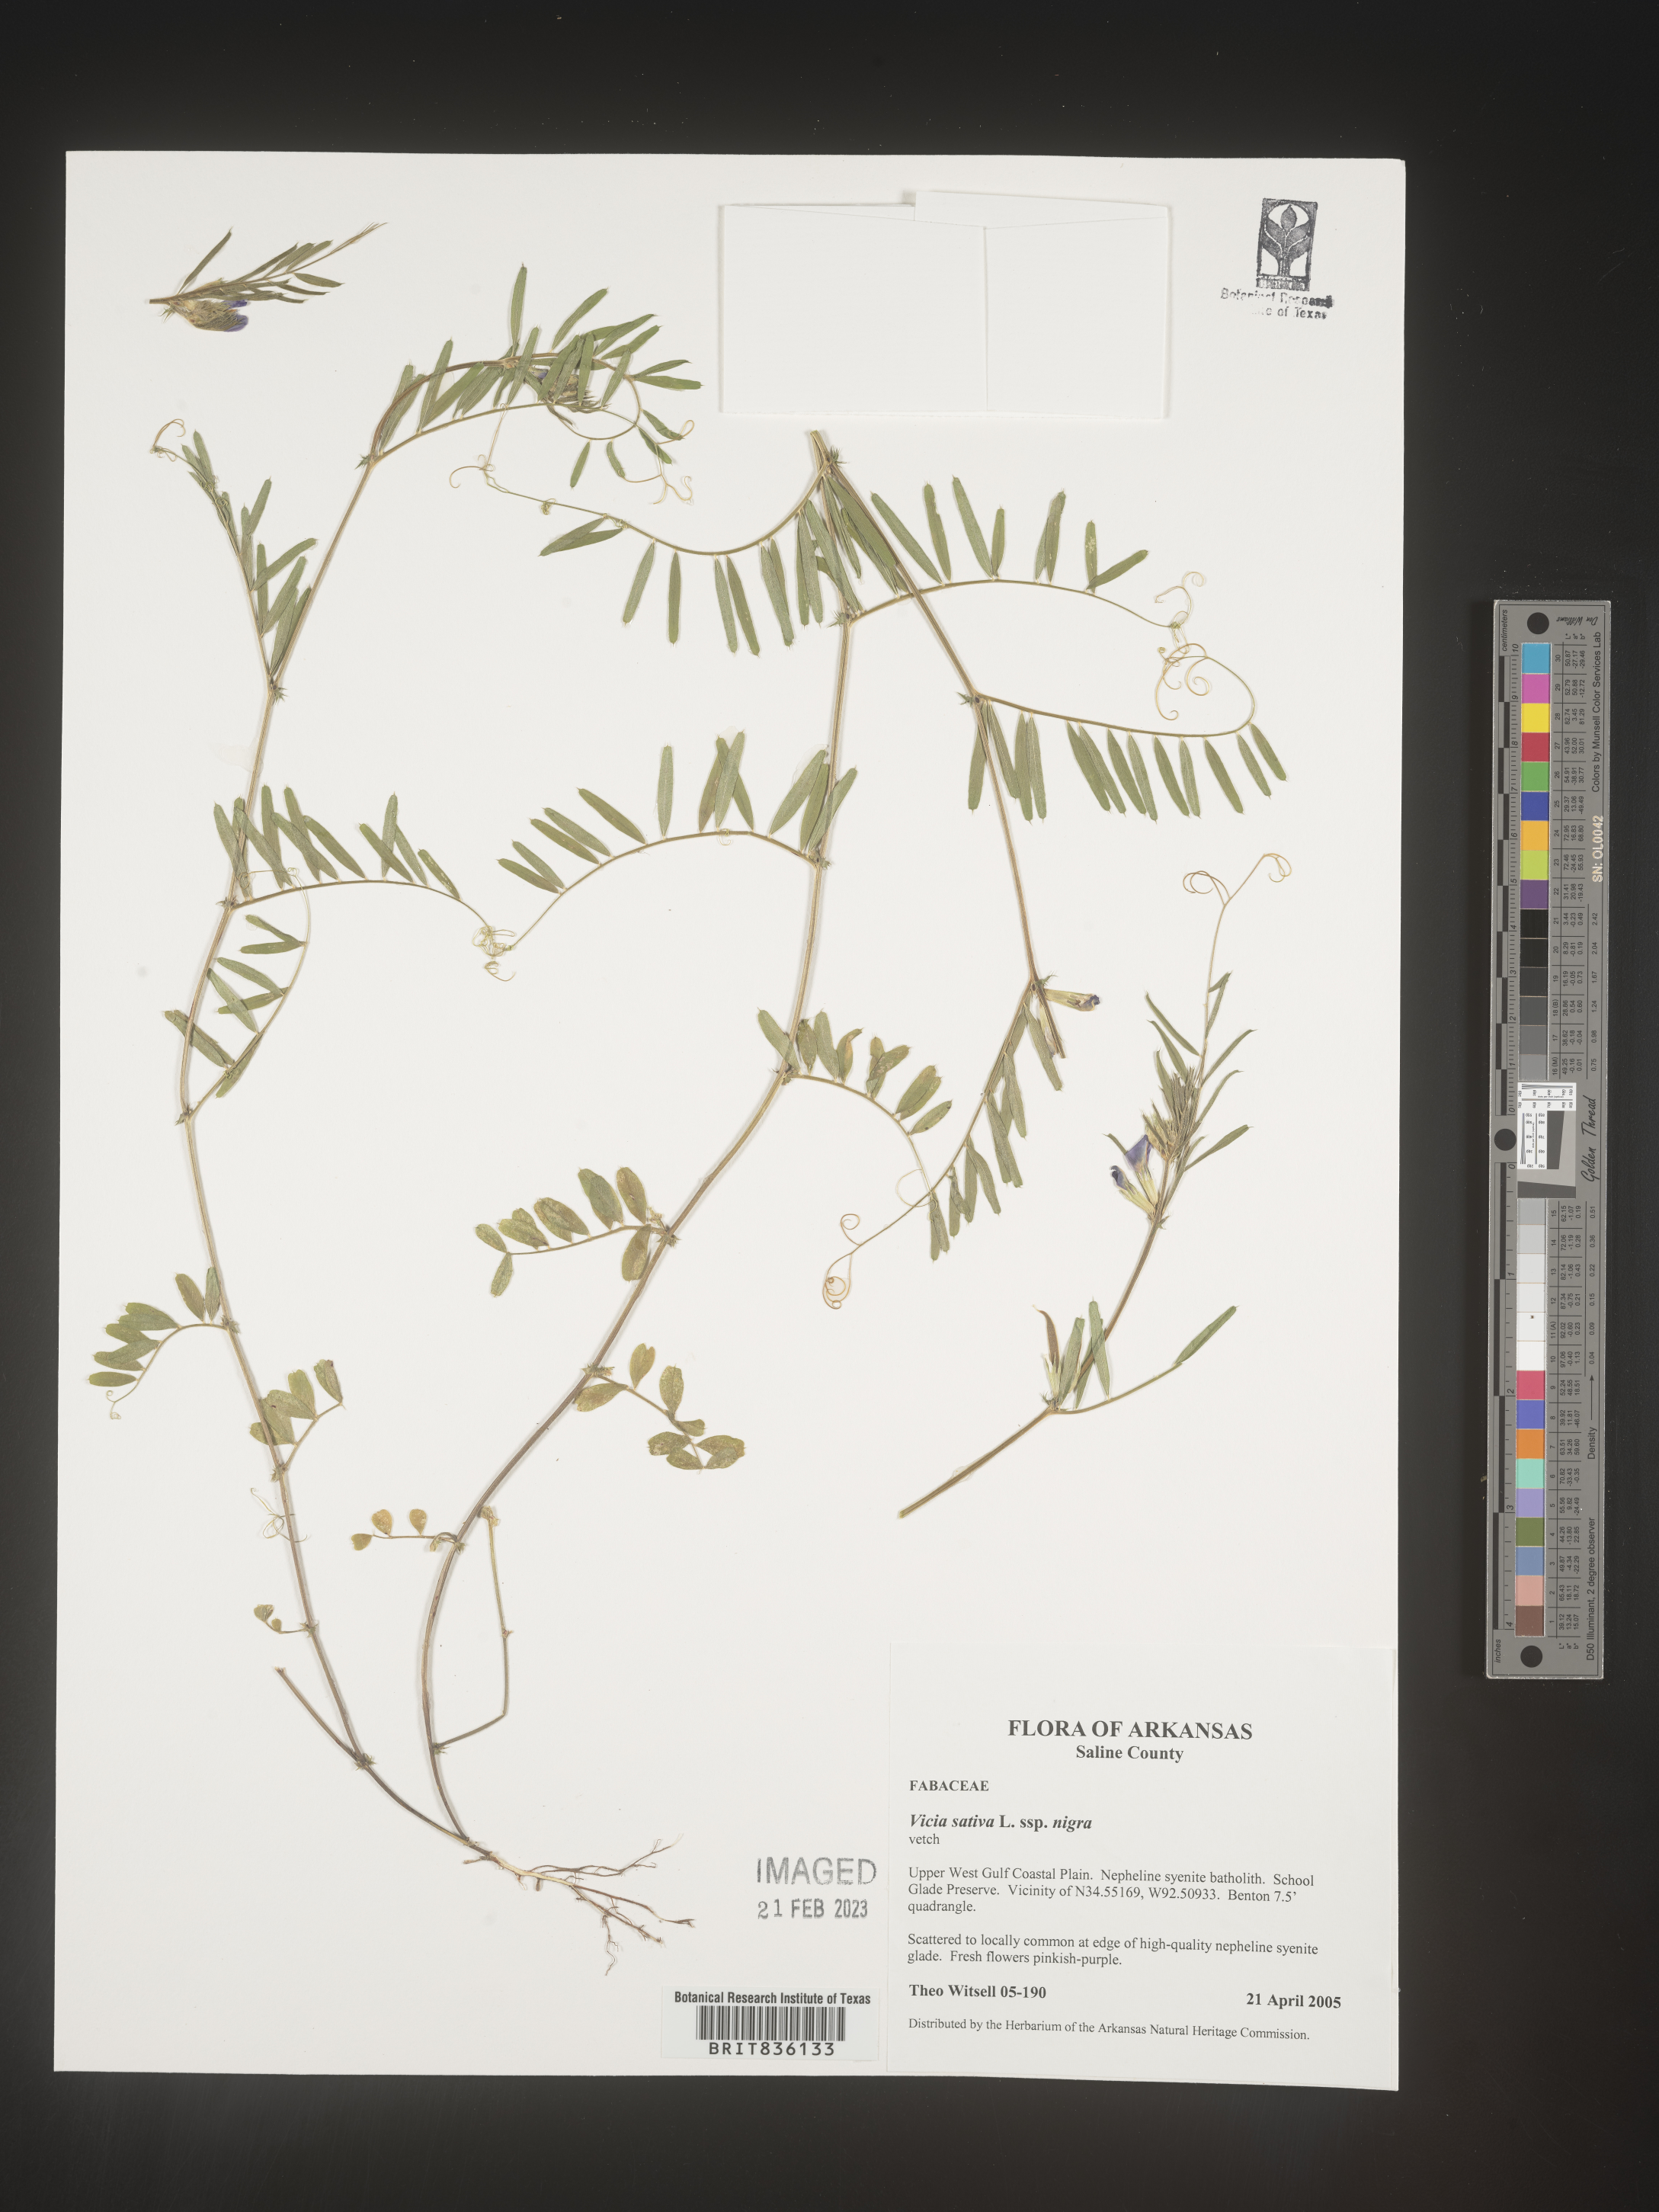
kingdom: Plantae
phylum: Tracheophyta
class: Magnoliopsida
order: Fabales
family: Fabaceae
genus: Vicia
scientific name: Vicia sativa
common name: Garden vetch
